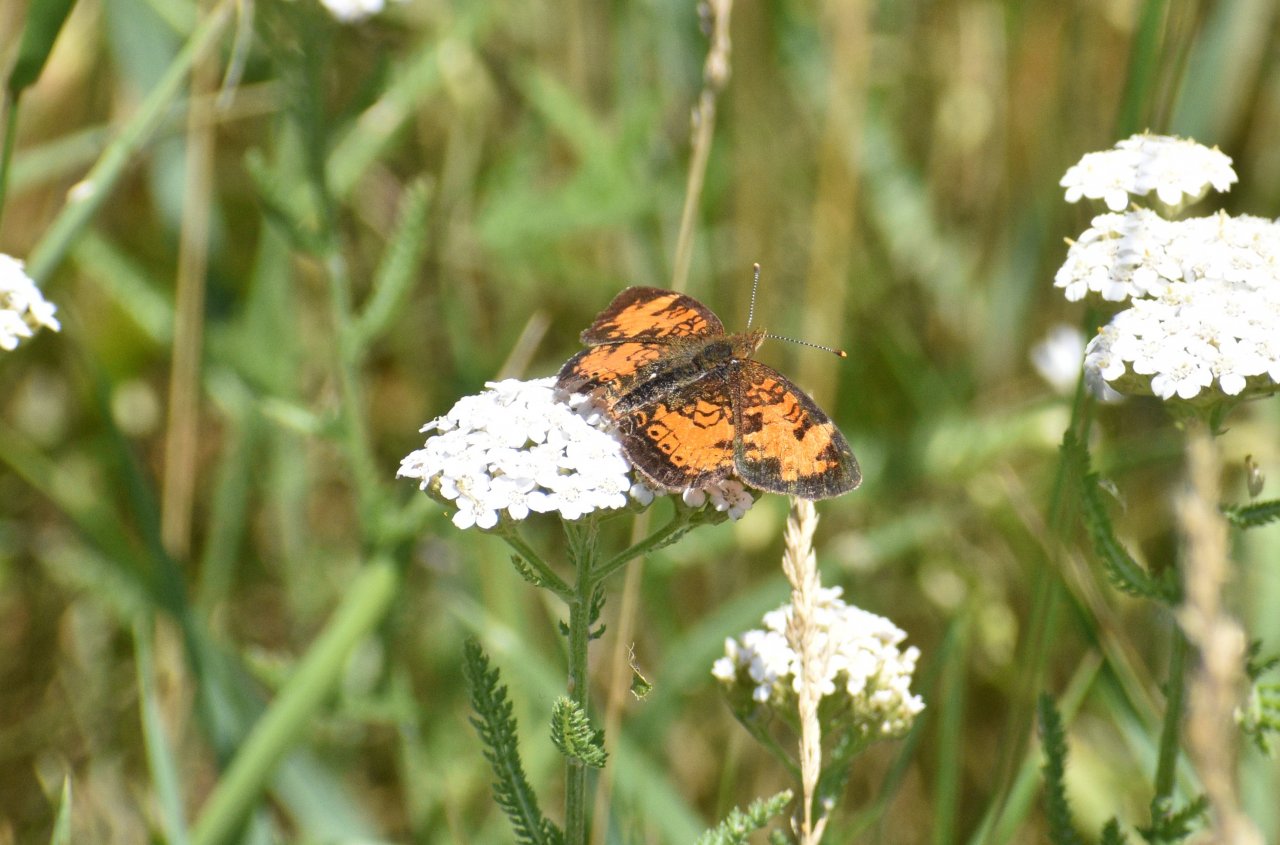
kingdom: Animalia
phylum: Arthropoda
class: Insecta
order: Lepidoptera
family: Nymphalidae
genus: Phyciodes
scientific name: Phyciodes tharos
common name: Northern Crescent
